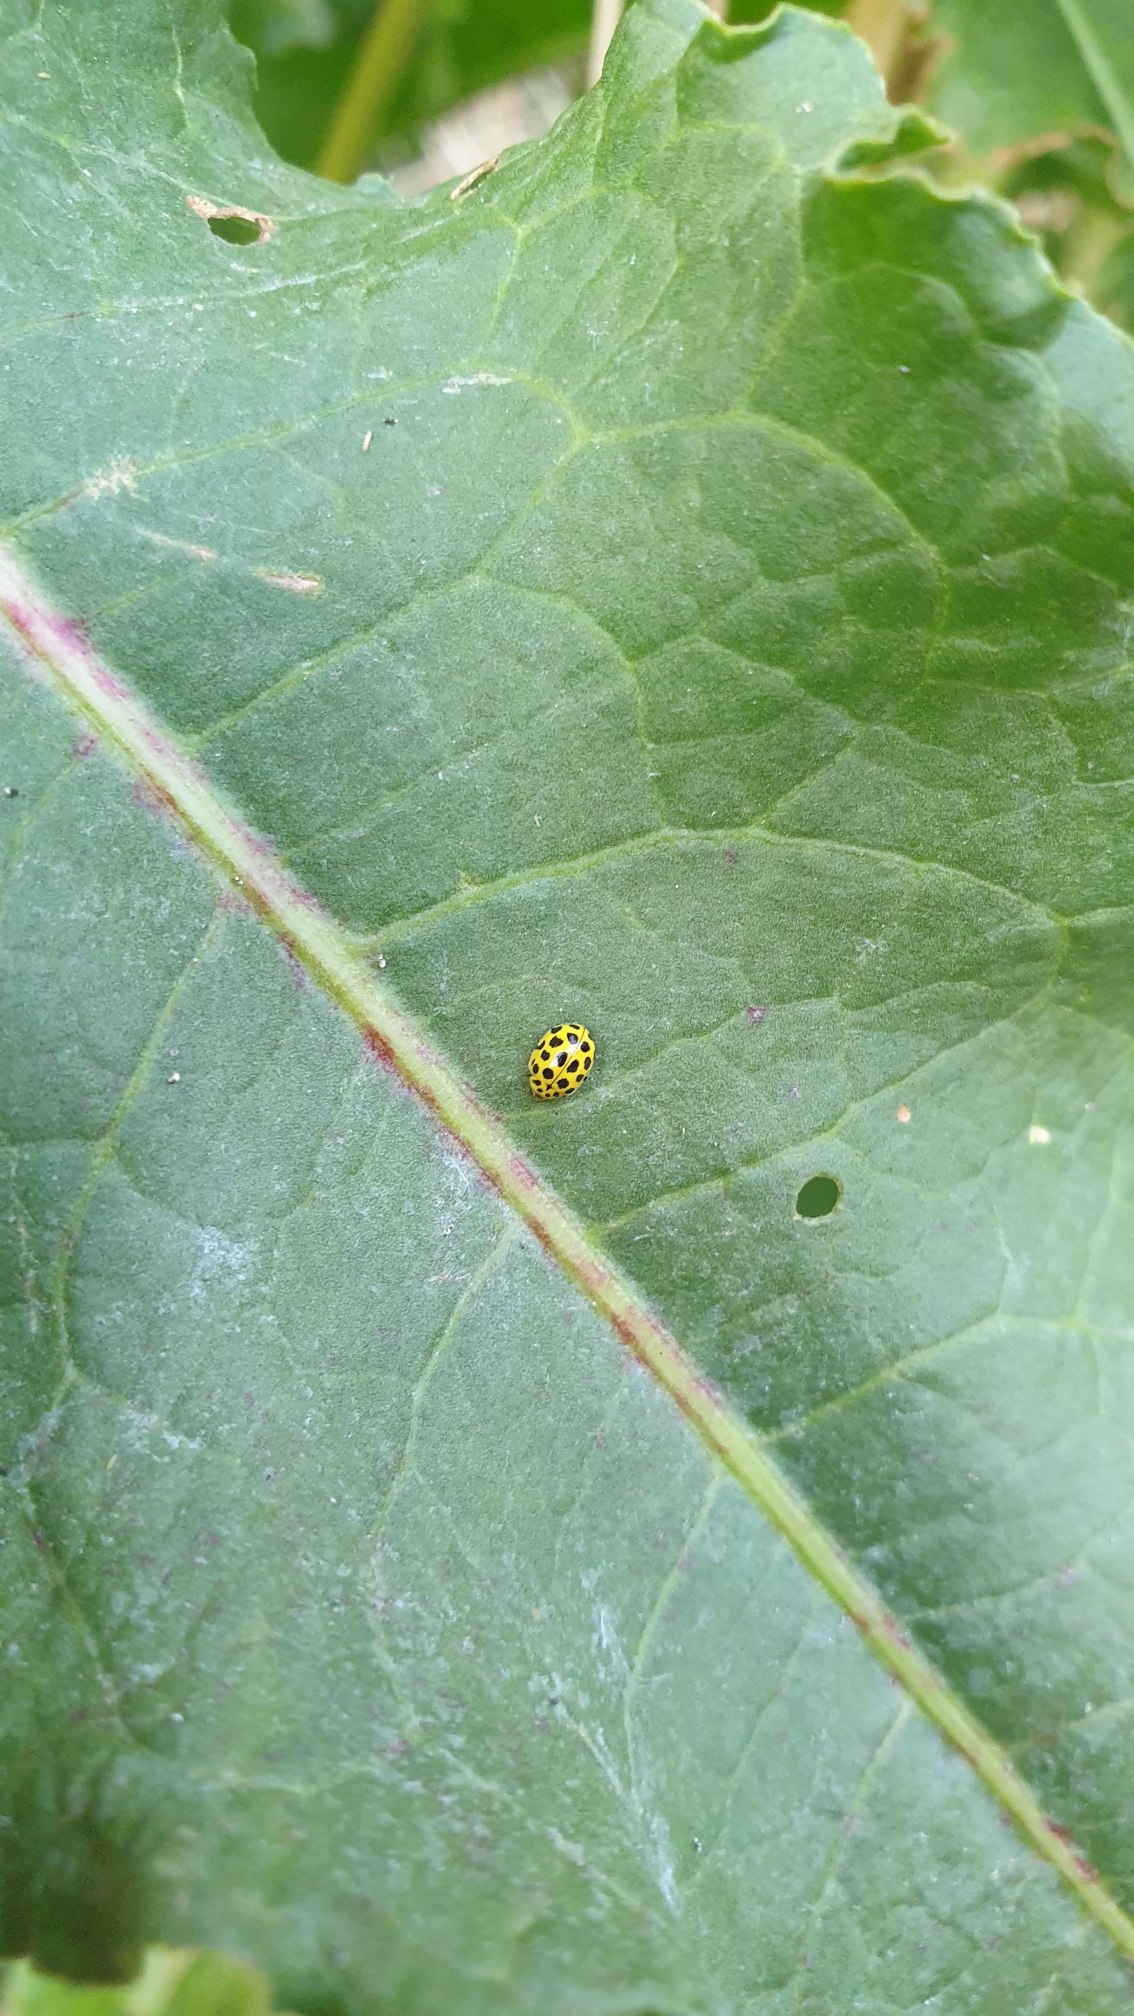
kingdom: Animalia
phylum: Arthropoda
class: Insecta
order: Coleoptera
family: Coccinellidae
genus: Psyllobora
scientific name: Psyllobora vigintiduopunctata
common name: Toogtyveplettet mariehøne
